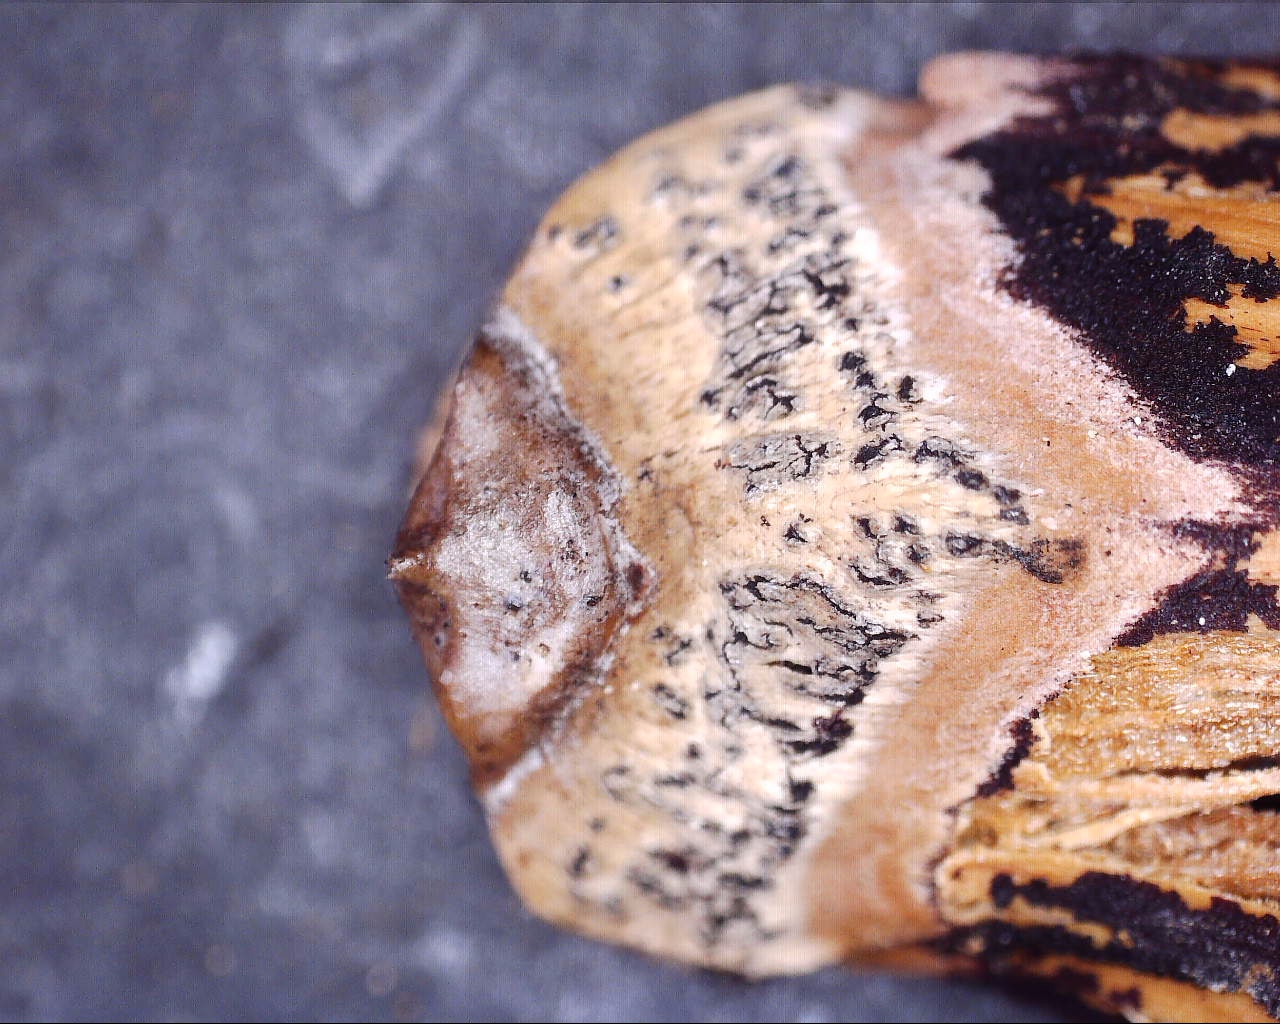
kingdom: Fungi
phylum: Ascomycota
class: Dothideomycetes
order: Botryosphaeriales
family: Botryosphaeriaceae
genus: Sphaeropsis
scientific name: Sphaeropsis sapinea
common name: Sphaeropsis blight
